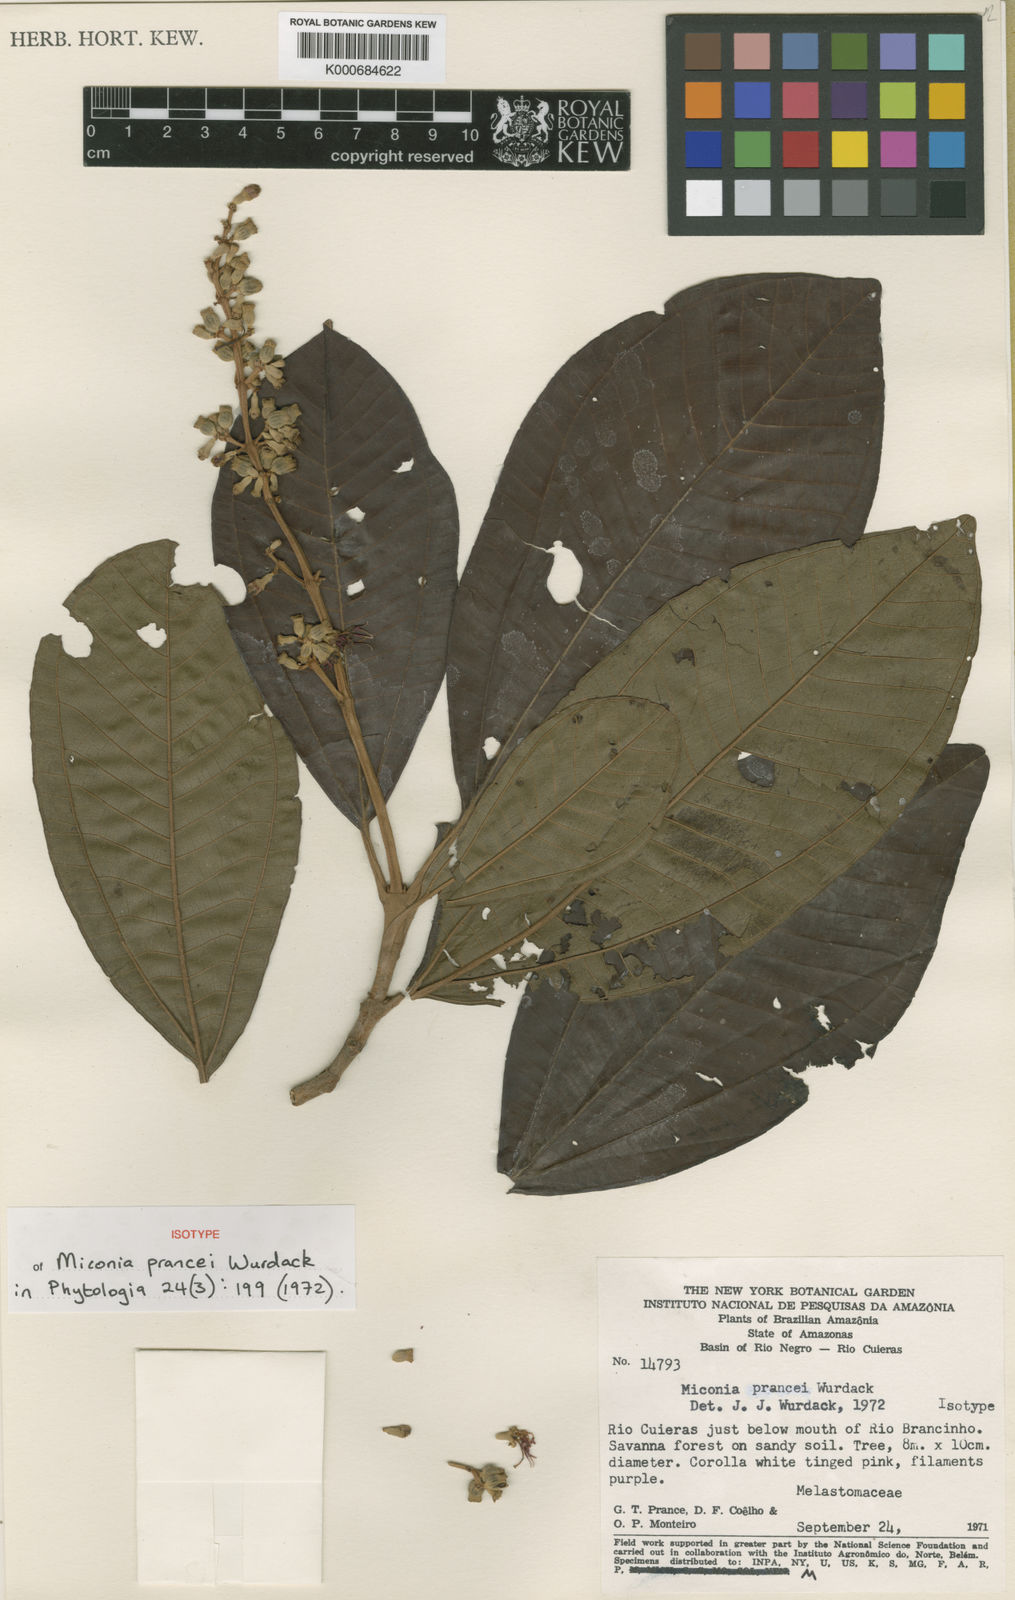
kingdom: Plantae
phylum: Tracheophyta
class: Magnoliopsida
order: Myrtales
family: Melastomataceae
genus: Miconia
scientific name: Miconia prancei
